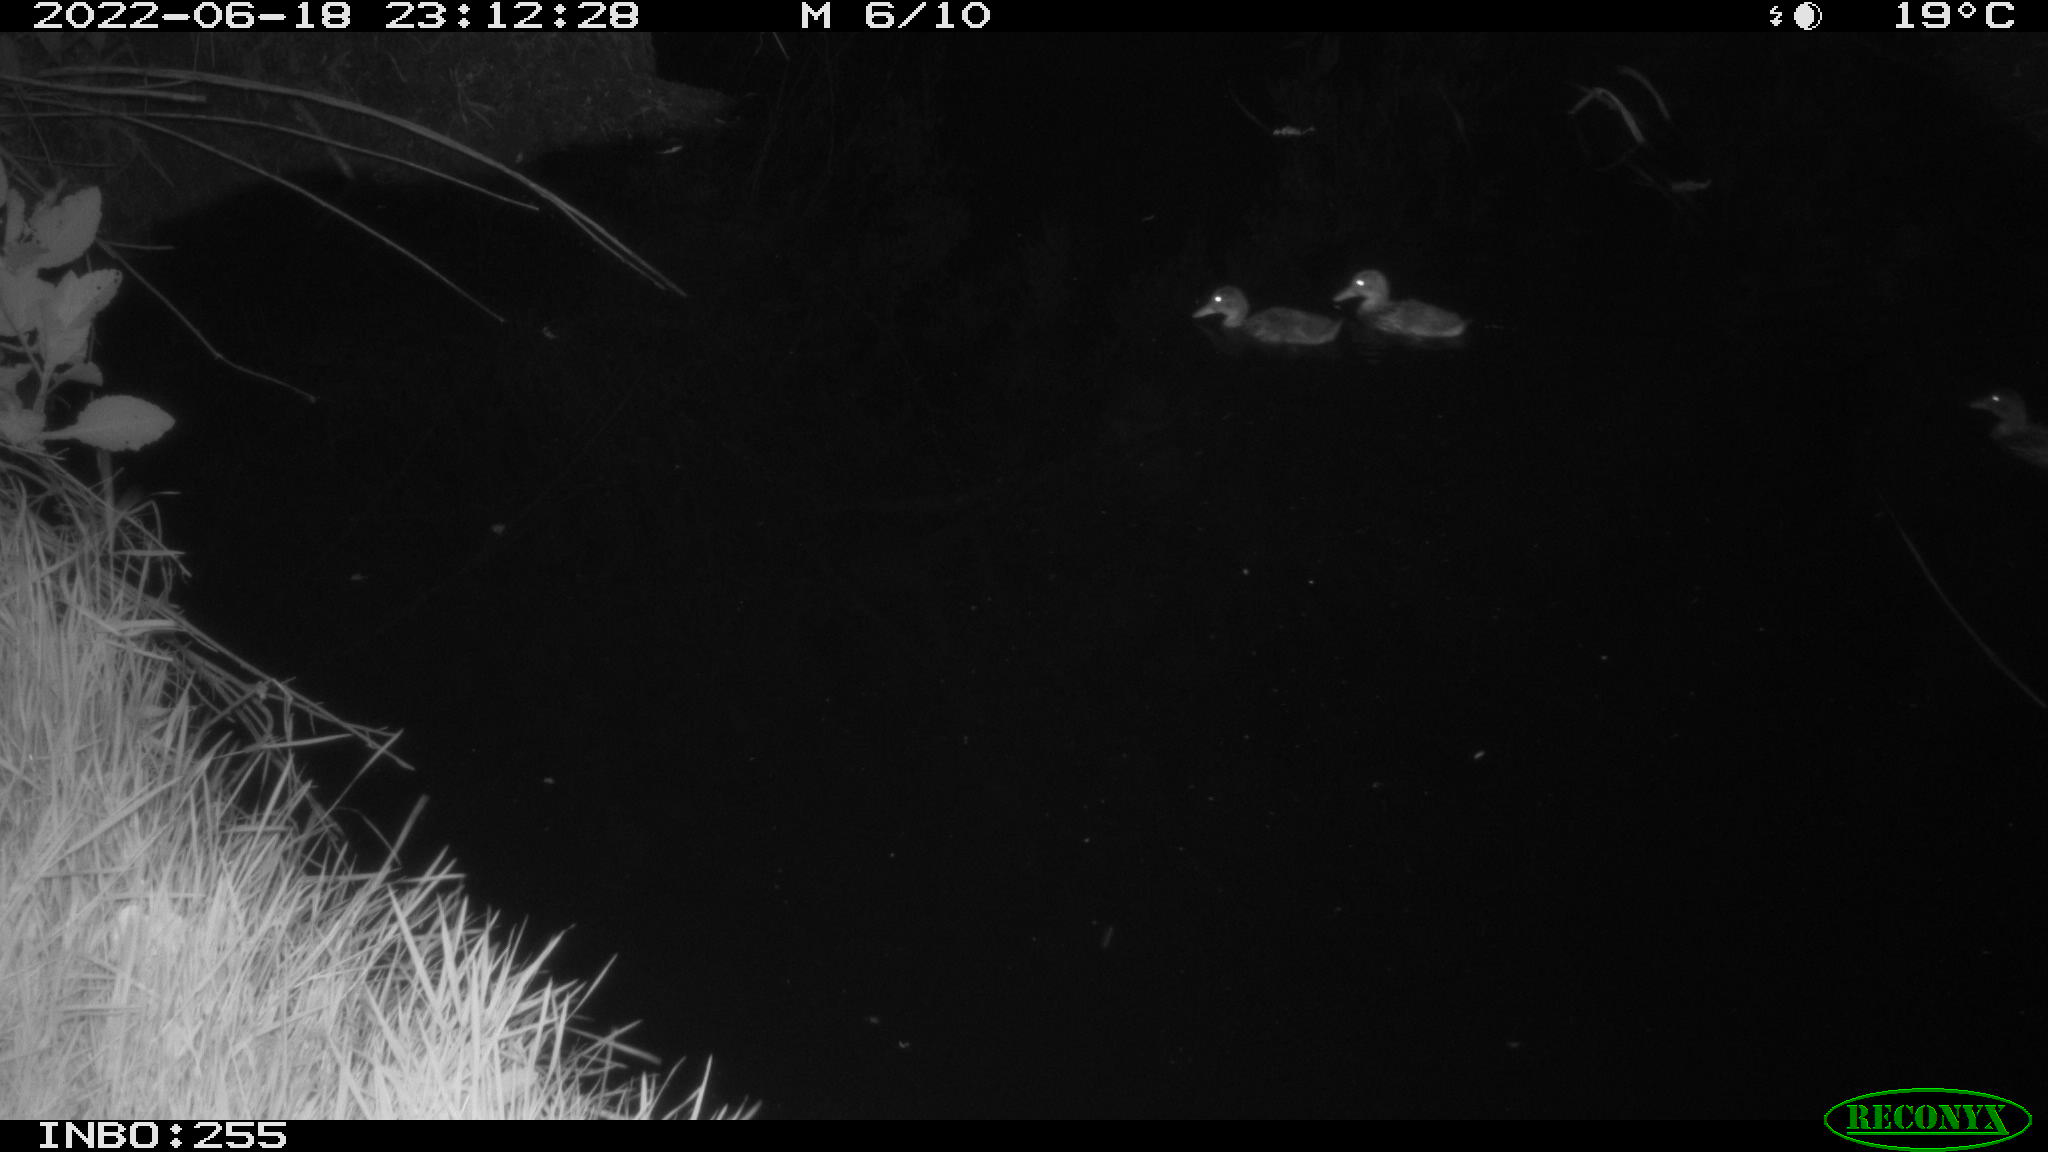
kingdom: Animalia
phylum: Chordata
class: Aves
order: Anseriformes
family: Anatidae
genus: Mareca
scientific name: Mareca strepera
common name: Gadwall
